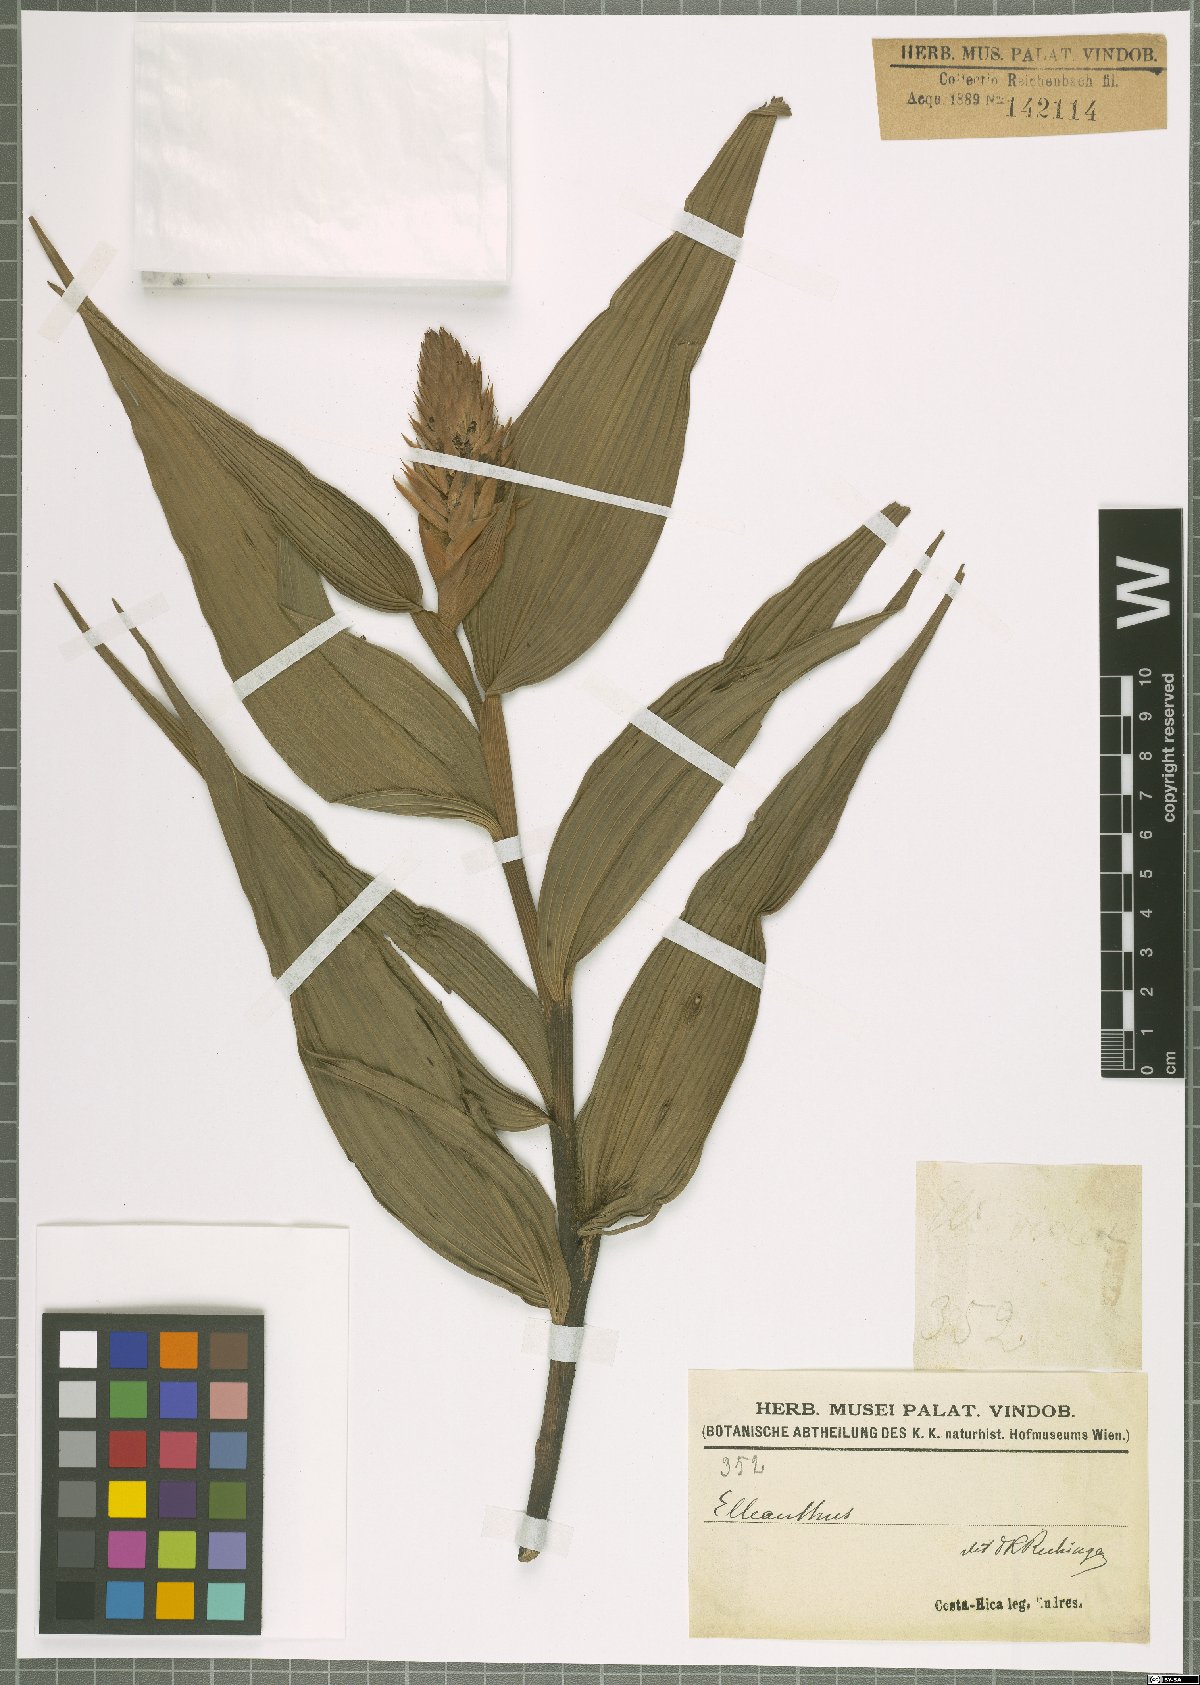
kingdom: Plantae
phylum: Tracheophyta
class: Liliopsida
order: Asparagales
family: Orchidaceae
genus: Elleanthus
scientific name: Elleanthus
